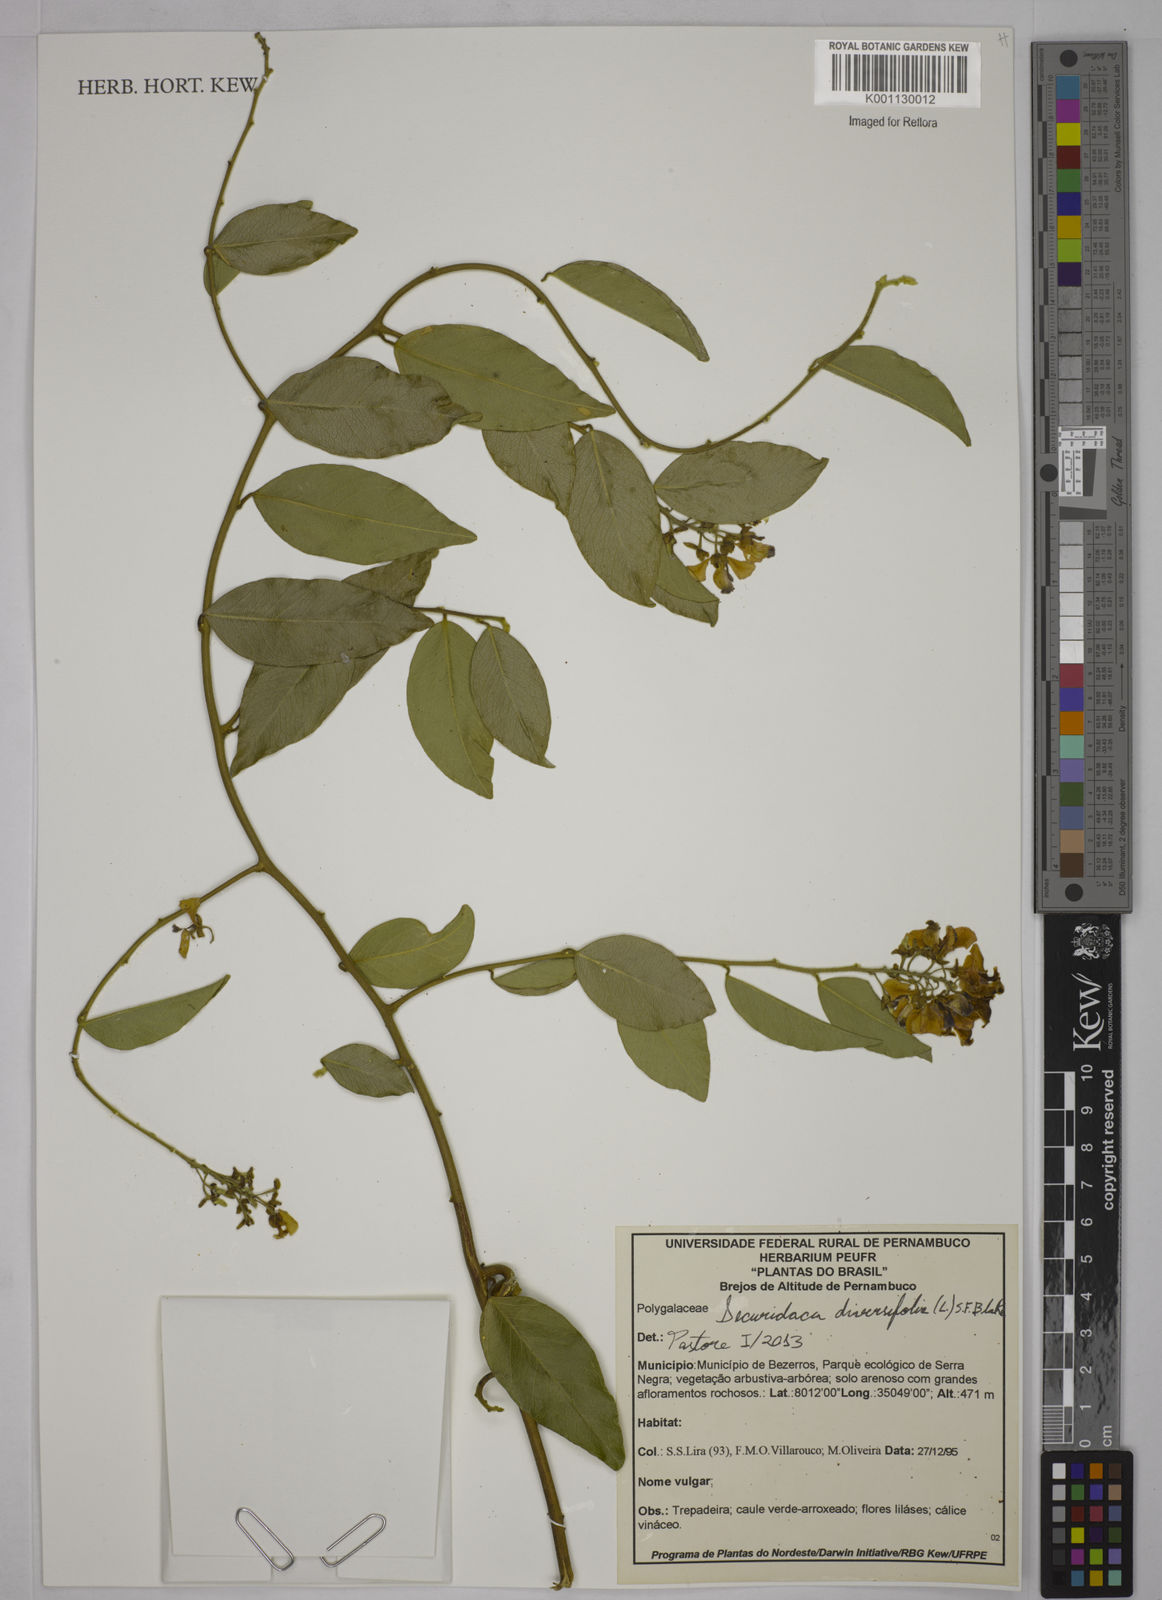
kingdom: Plantae
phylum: Tracheophyta
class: Magnoliopsida
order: Fabales
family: Polygalaceae
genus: Securidaca
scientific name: Securidaca diversifolia
